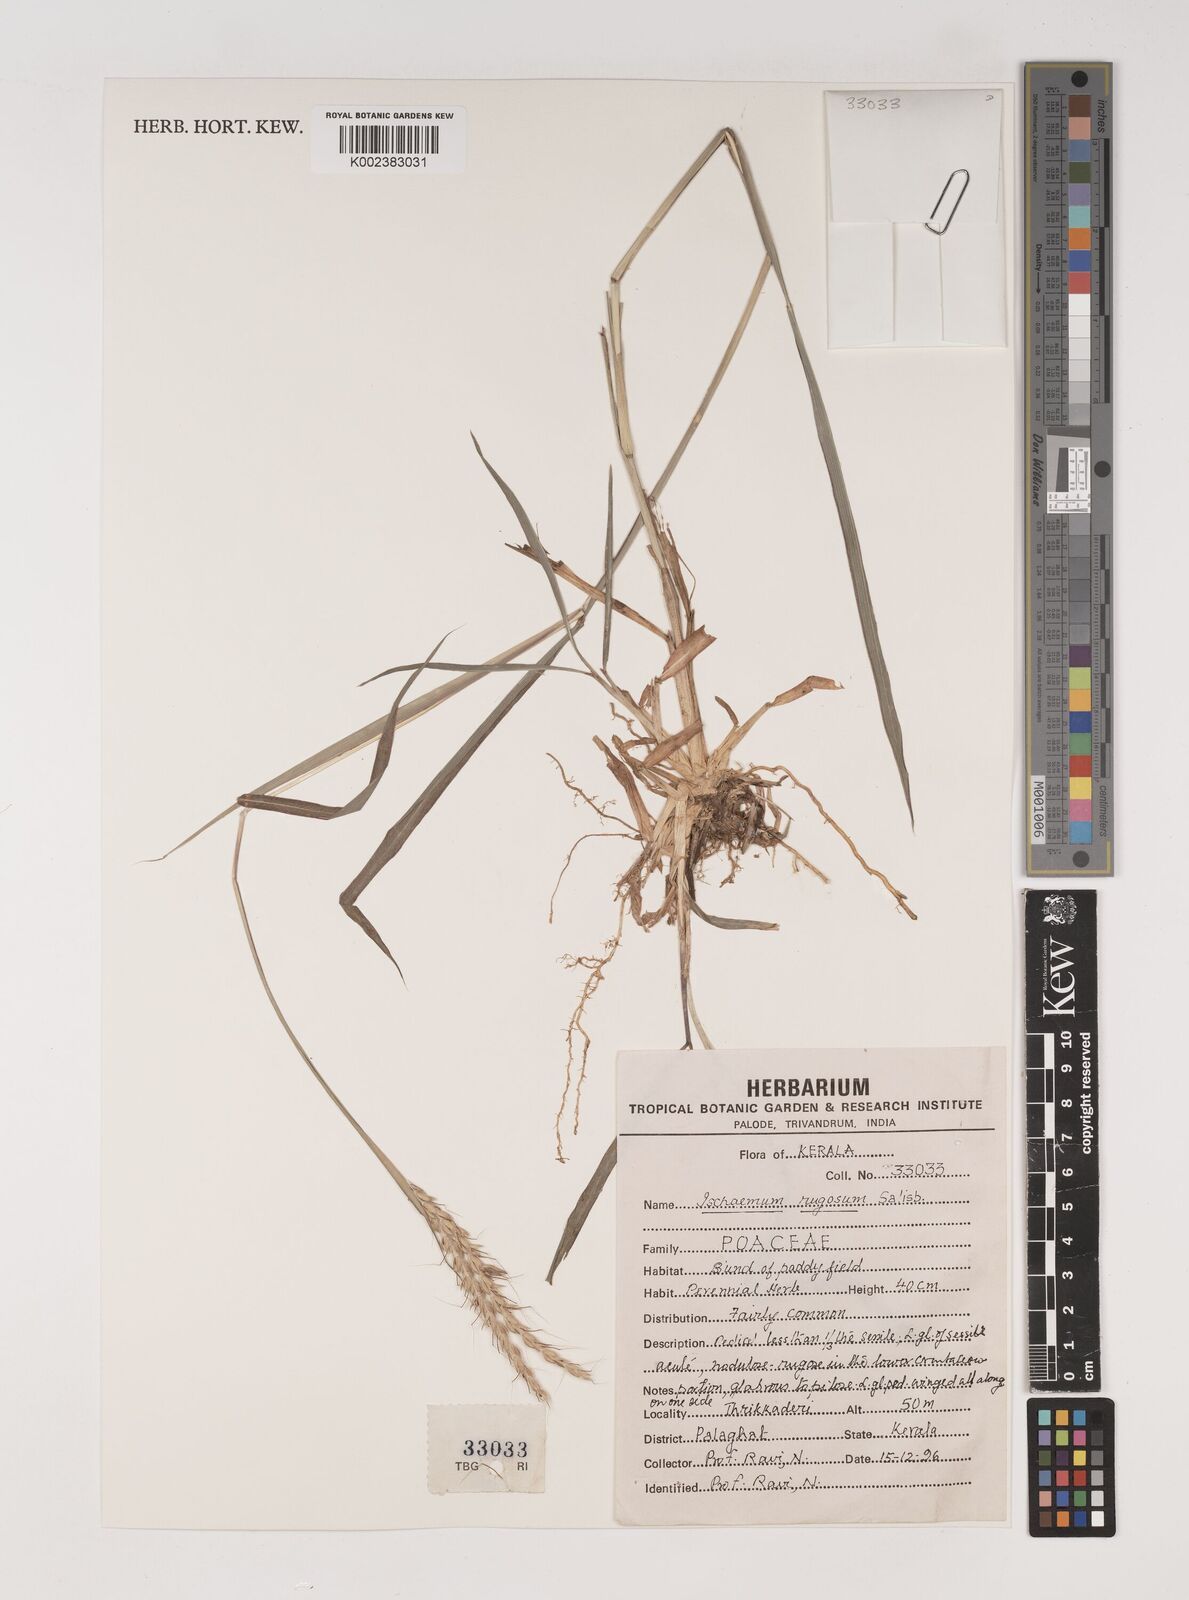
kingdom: Plantae
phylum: Tracheophyta
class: Liliopsida
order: Poales
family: Poaceae
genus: Ischaemum
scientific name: Ischaemum rugosum
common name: Saramatta grass
